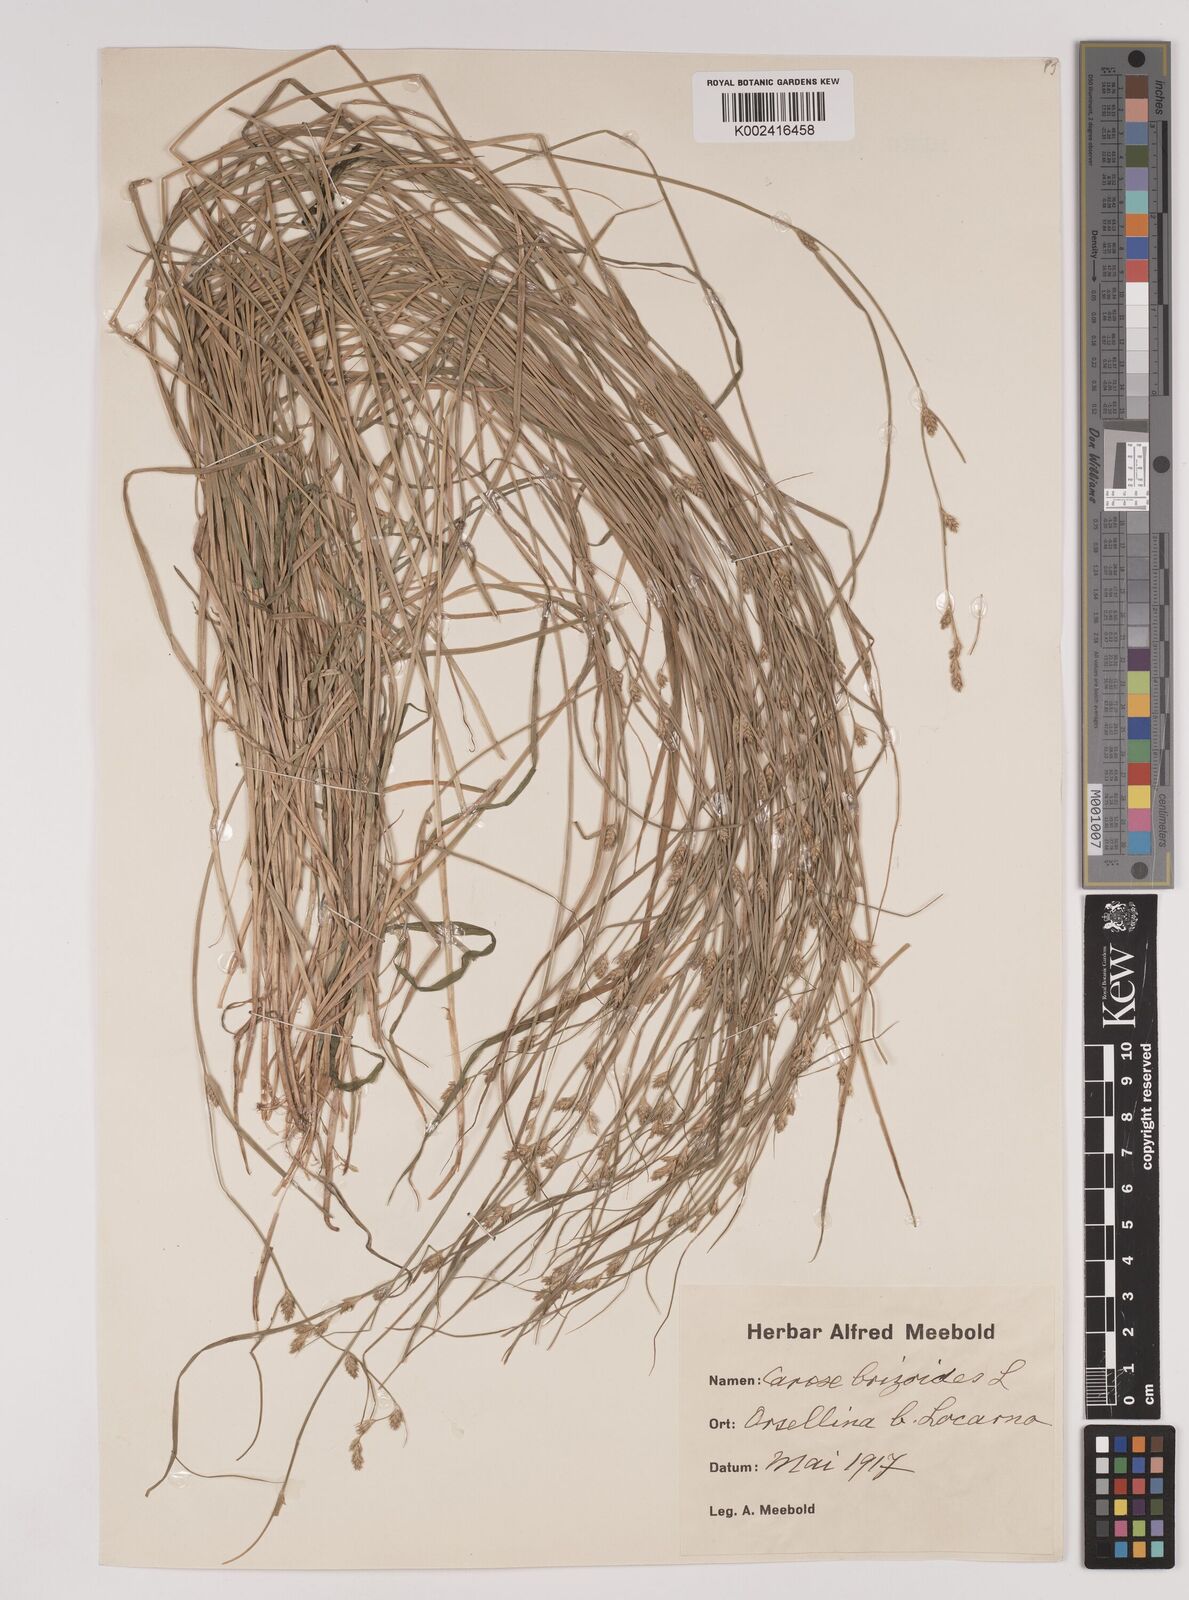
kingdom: Plantae
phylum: Tracheophyta
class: Liliopsida
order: Poales
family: Cyperaceae
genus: Carex
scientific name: Carex brizoides
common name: Quaking-grass sedge
